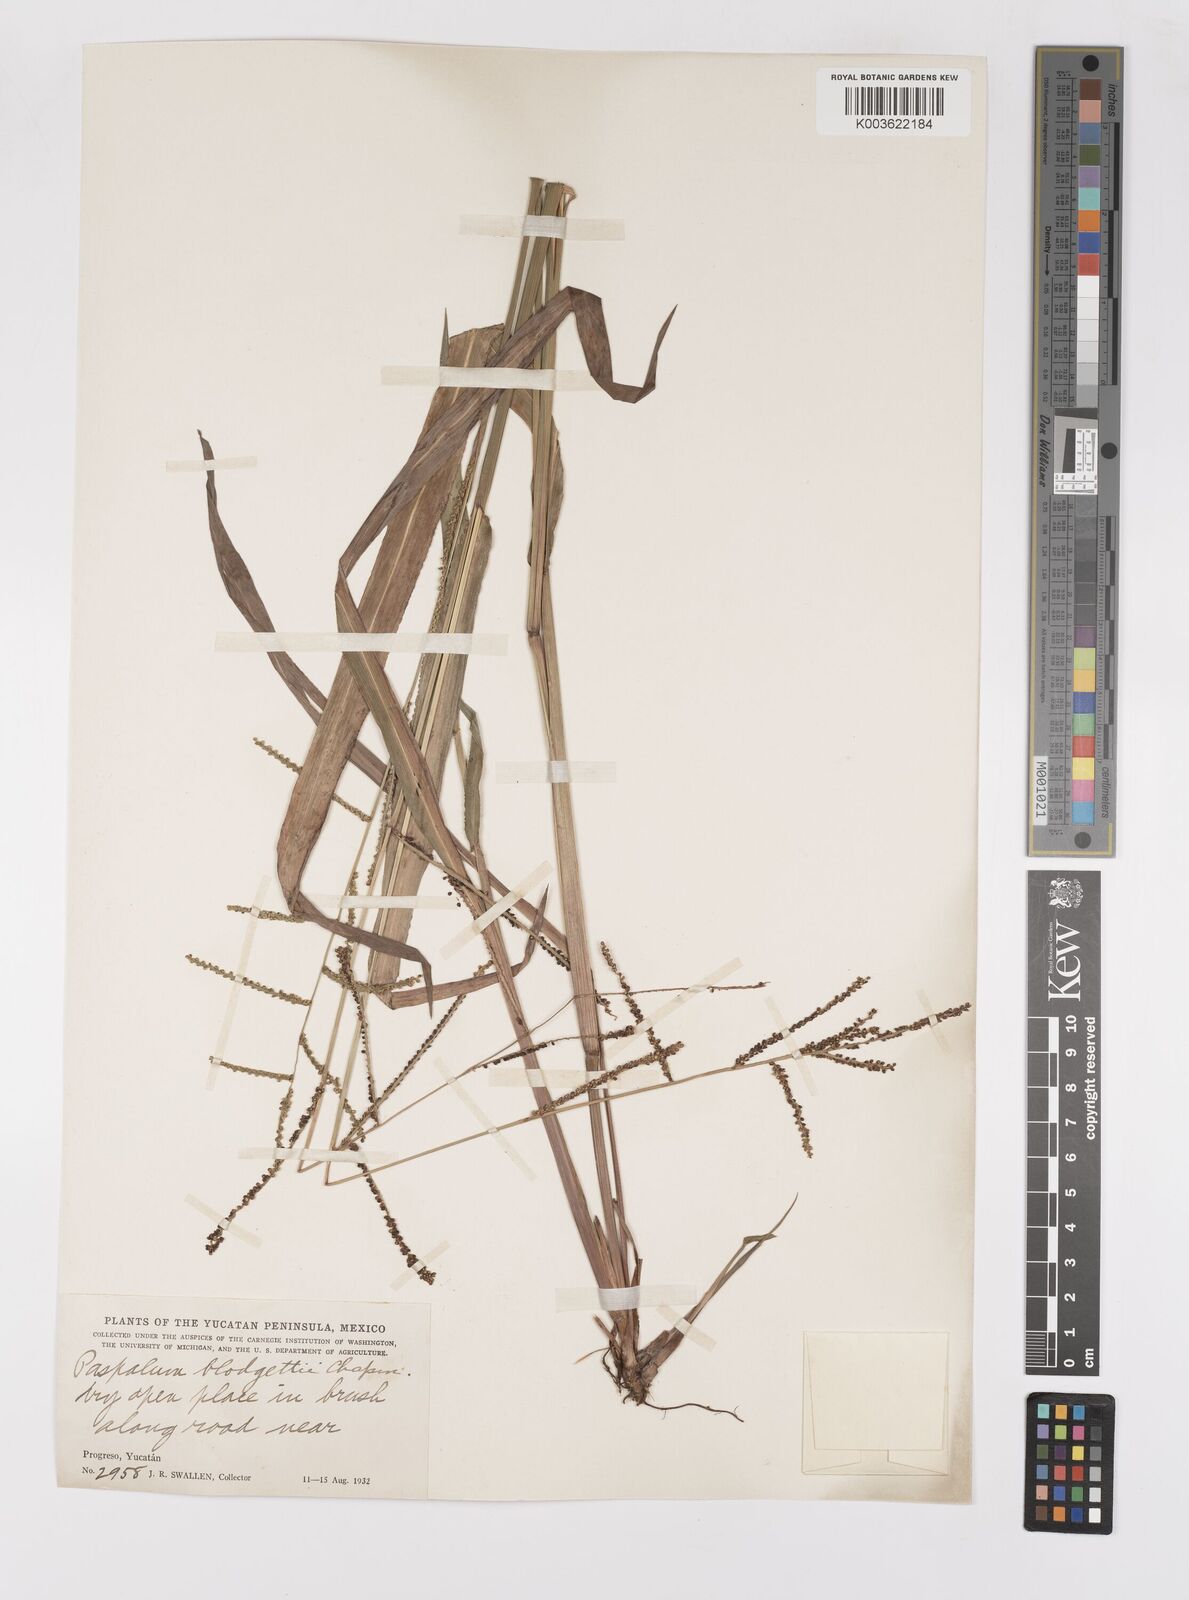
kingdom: Plantae
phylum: Tracheophyta
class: Liliopsida
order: Poales
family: Poaceae
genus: Paspalum
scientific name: Paspalum blodgettii
